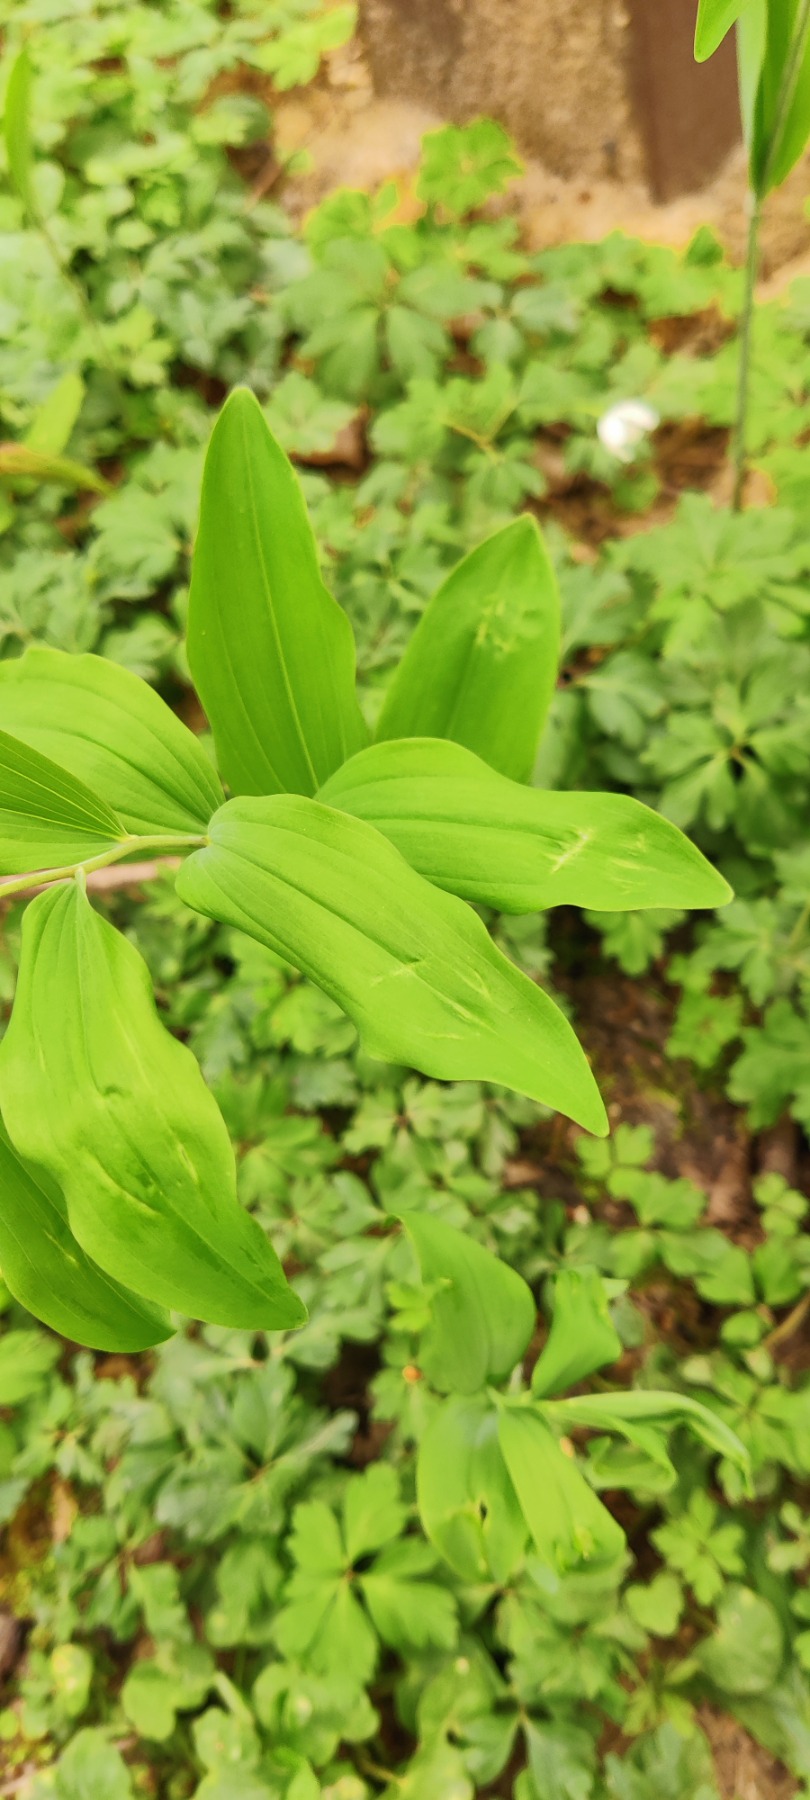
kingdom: Plantae
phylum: Tracheophyta
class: Liliopsida
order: Asparagales
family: Asparagaceae
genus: Polygonatum
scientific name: Polygonatum multiflorum
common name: Stor konval
